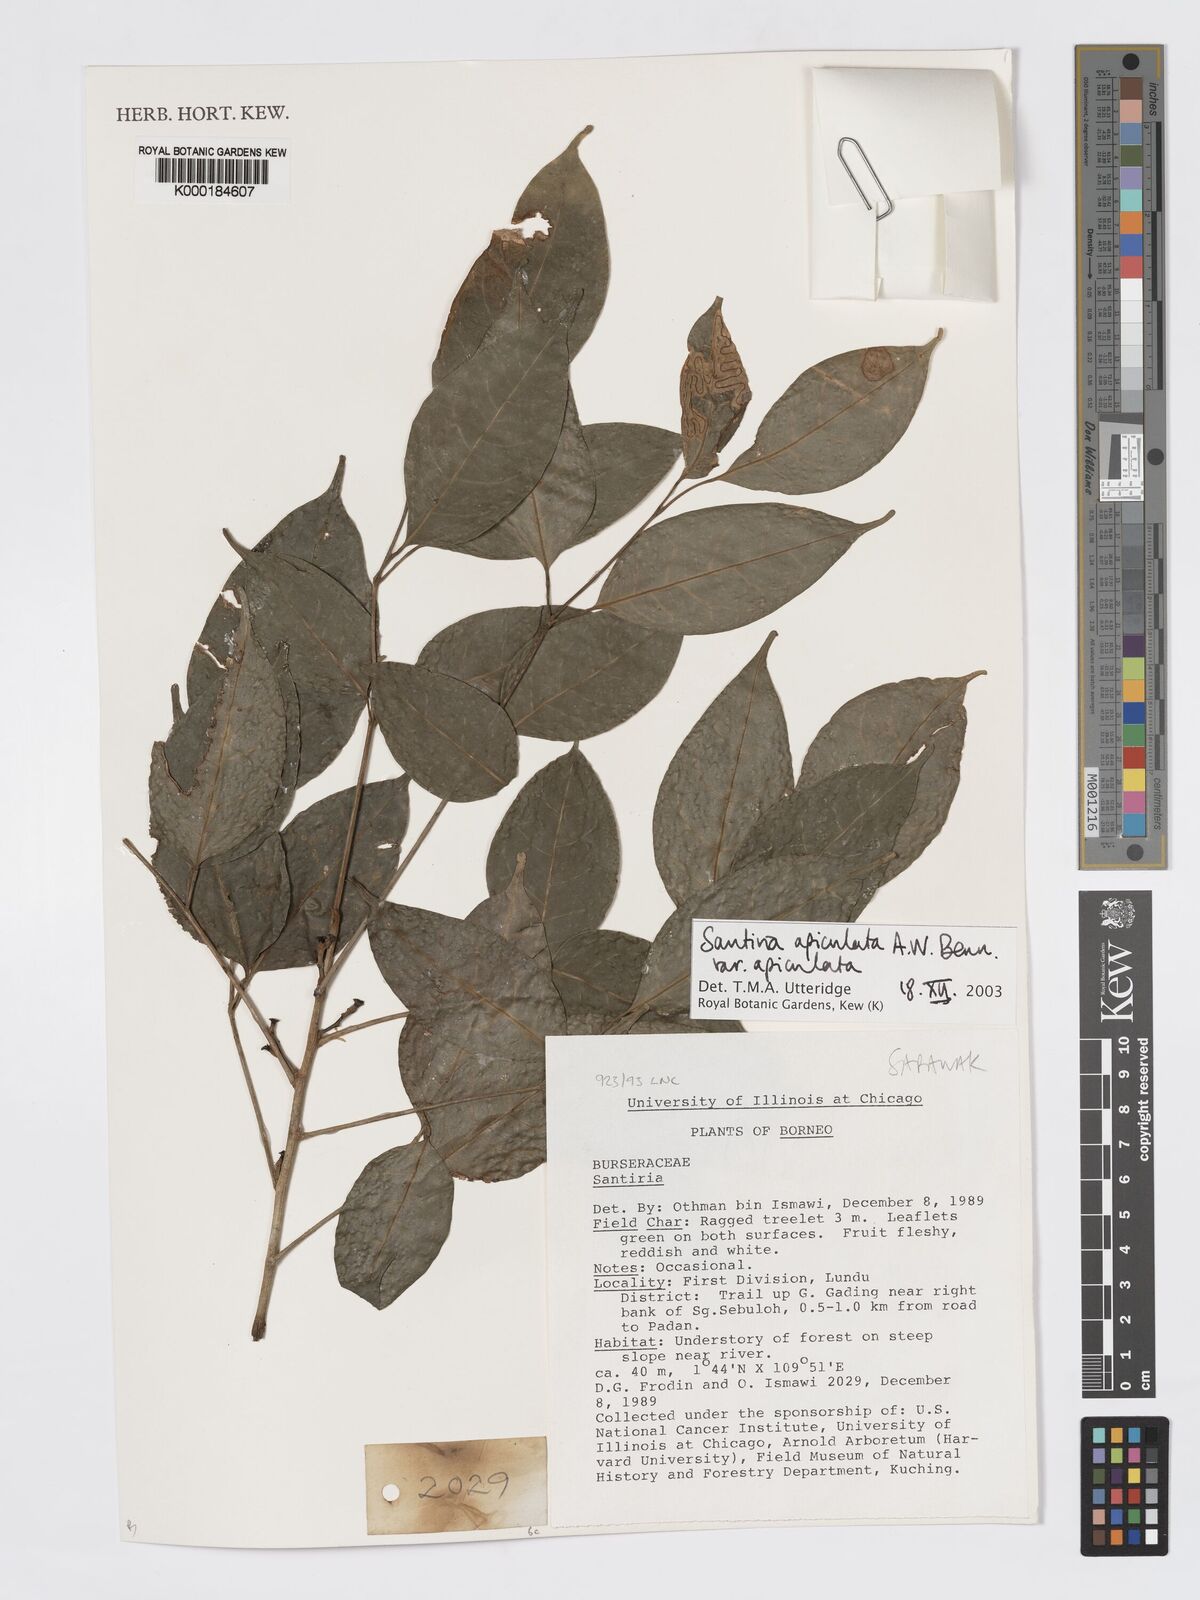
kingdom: Plantae
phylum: Tracheophyta
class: Magnoliopsida
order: Sapindales
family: Burseraceae
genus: Santiria
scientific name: Santiria apiculata
